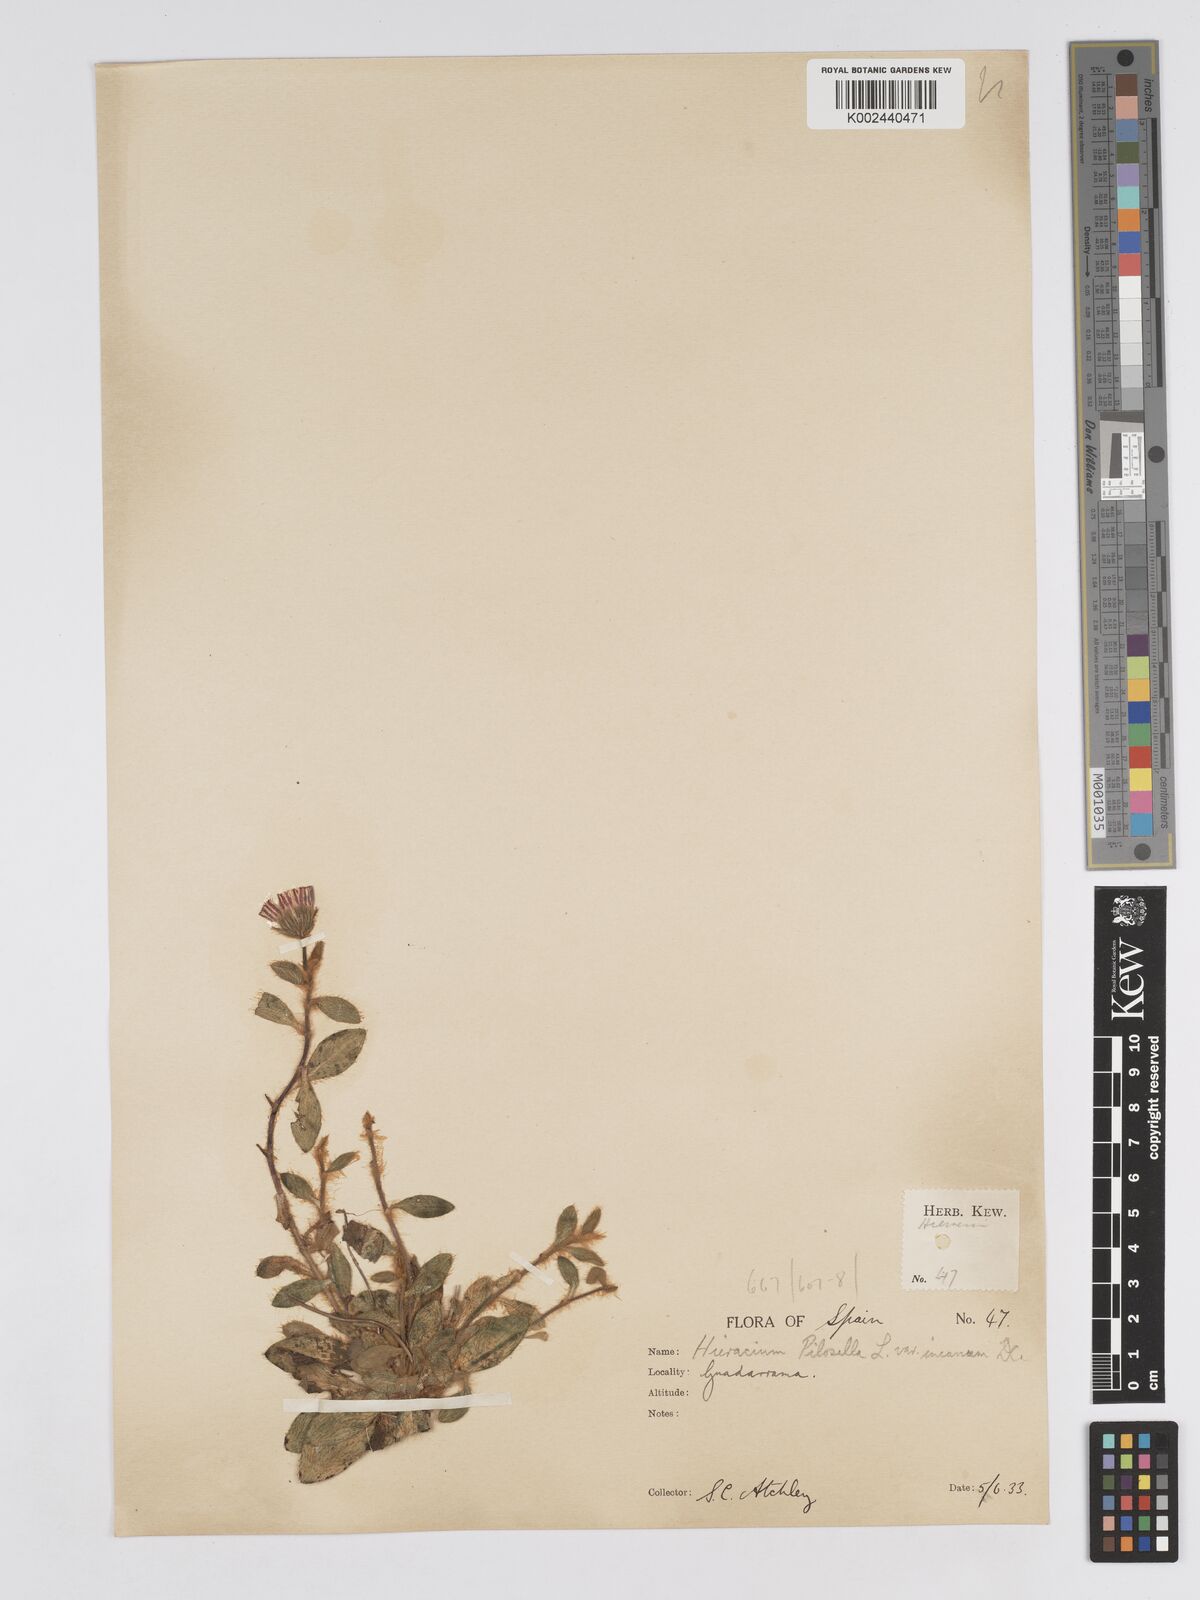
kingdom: Plantae
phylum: Tracheophyta
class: Magnoliopsida
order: Asterales
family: Asteraceae
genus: Pilosella
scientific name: Pilosella velutina
